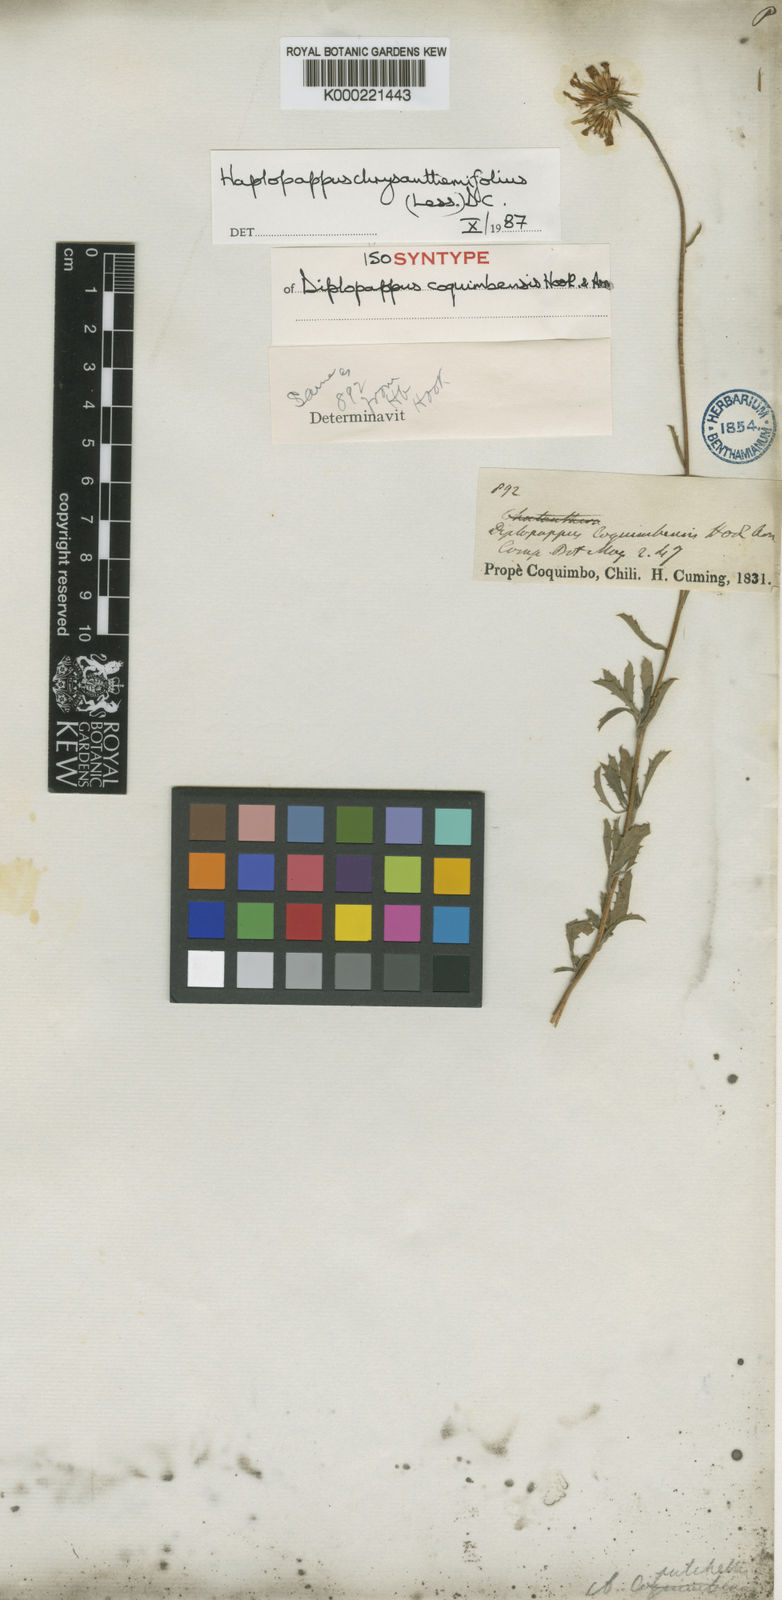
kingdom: Plantae
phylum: Tracheophyta
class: Magnoliopsida
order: Asterales
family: Asteraceae
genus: Haplopappus
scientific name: Haplopappus chrysanthemifolius
